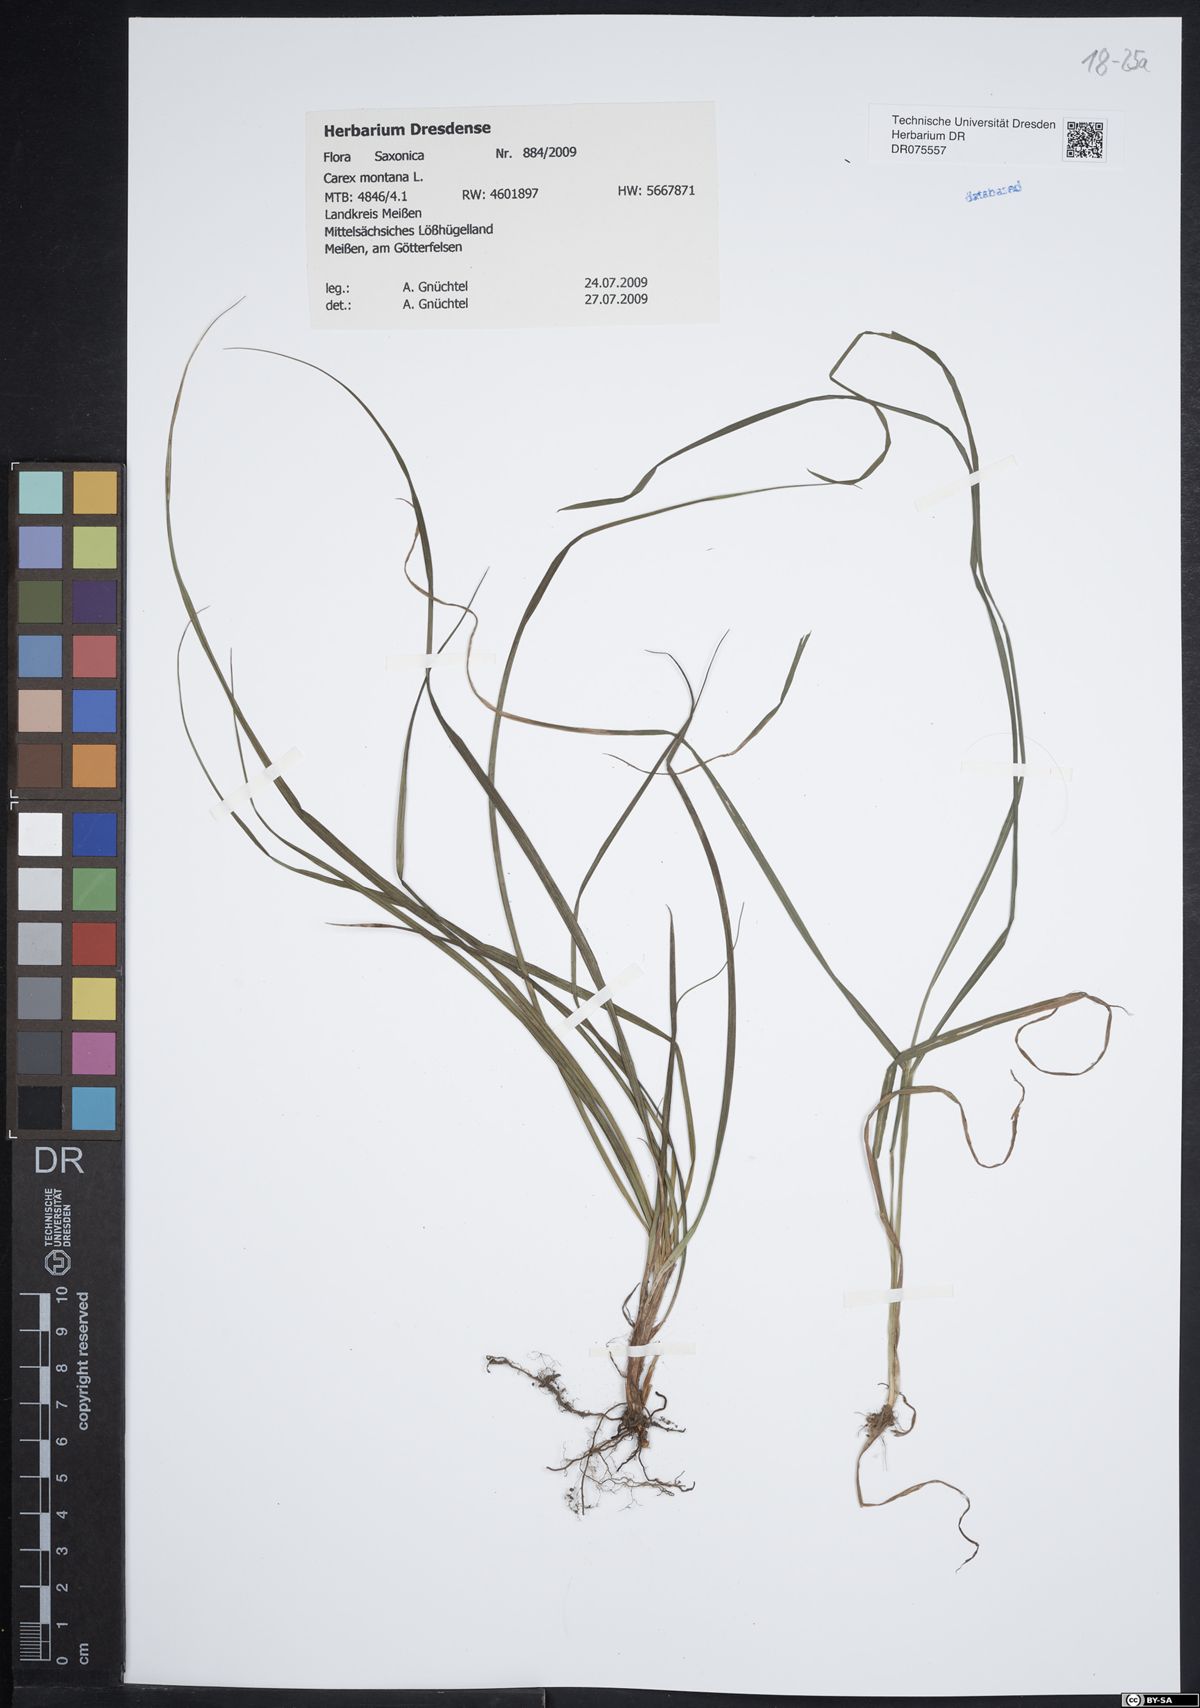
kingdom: Plantae
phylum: Tracheophyta
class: Liliopsida
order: Poales
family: Cyperaceae
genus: Carex
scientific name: Carex montana
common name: Soft-leaved sedge
